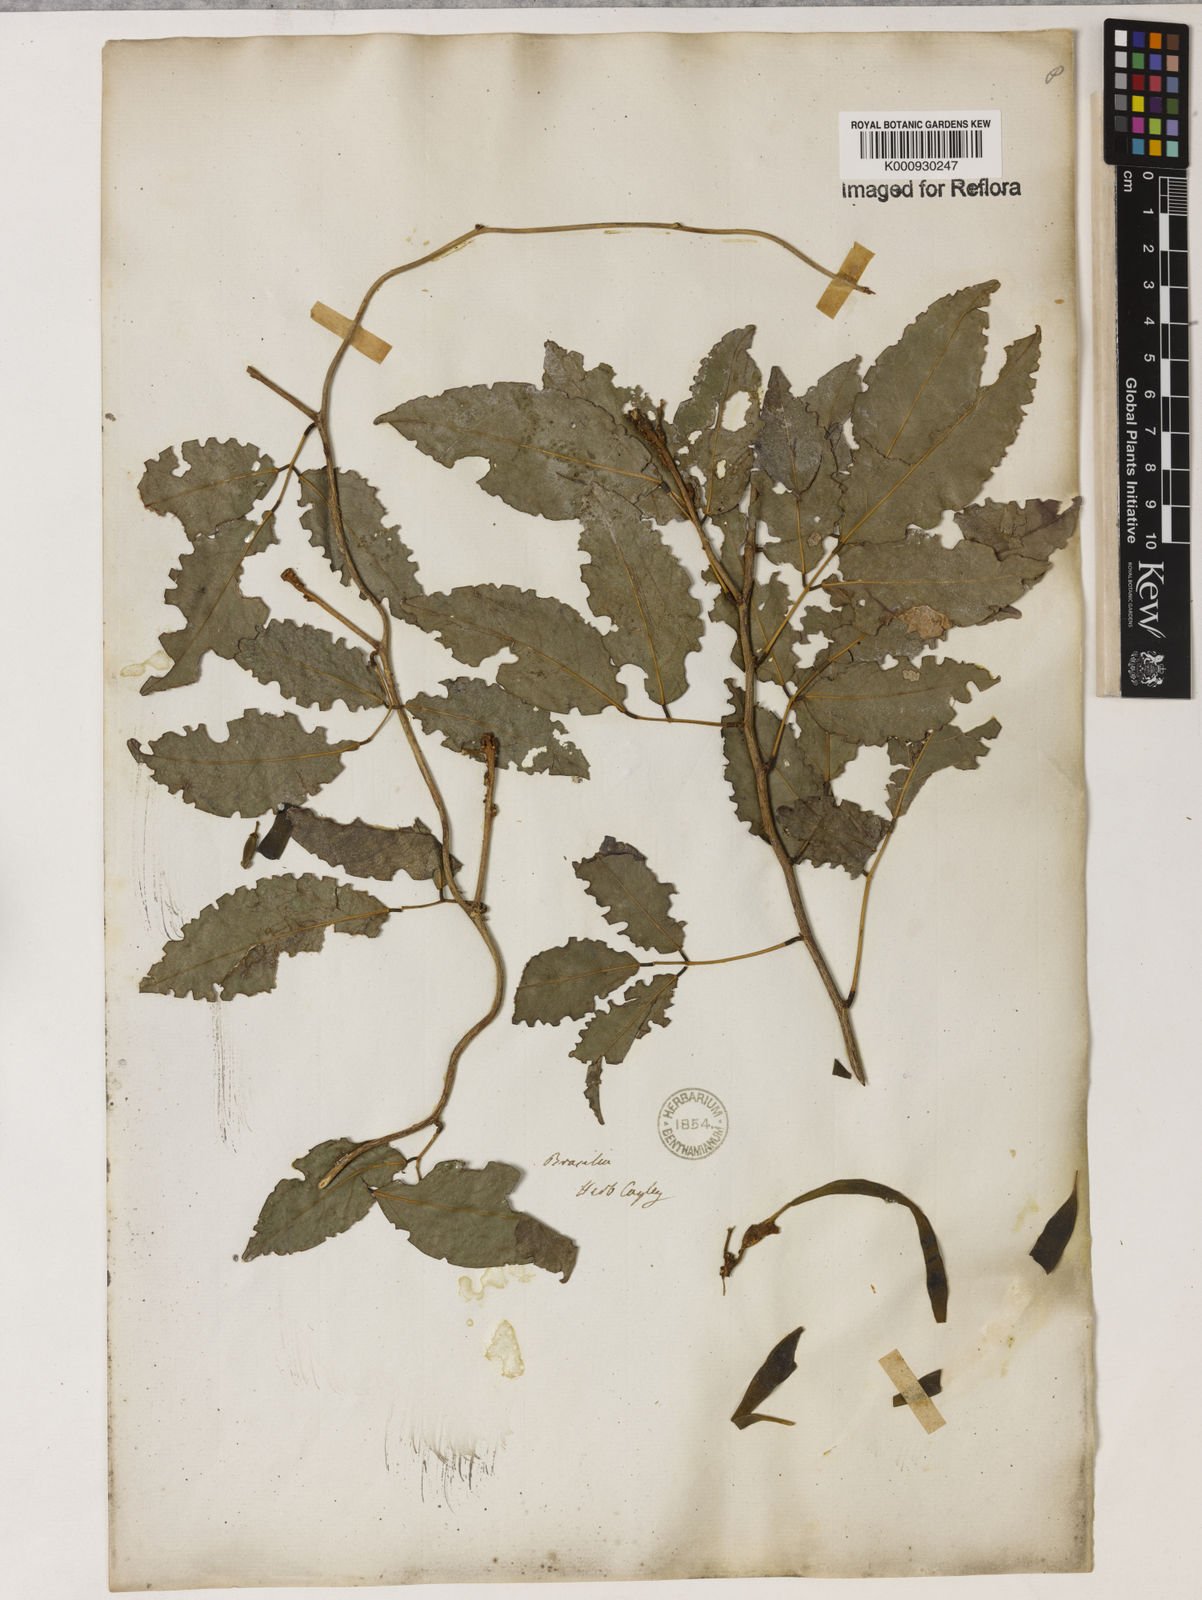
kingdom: Plantae
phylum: Tracheophyta
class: Magnoliopsida
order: Fabales
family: Fabaceae
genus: Cratylia
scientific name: Cratylia isopetala
